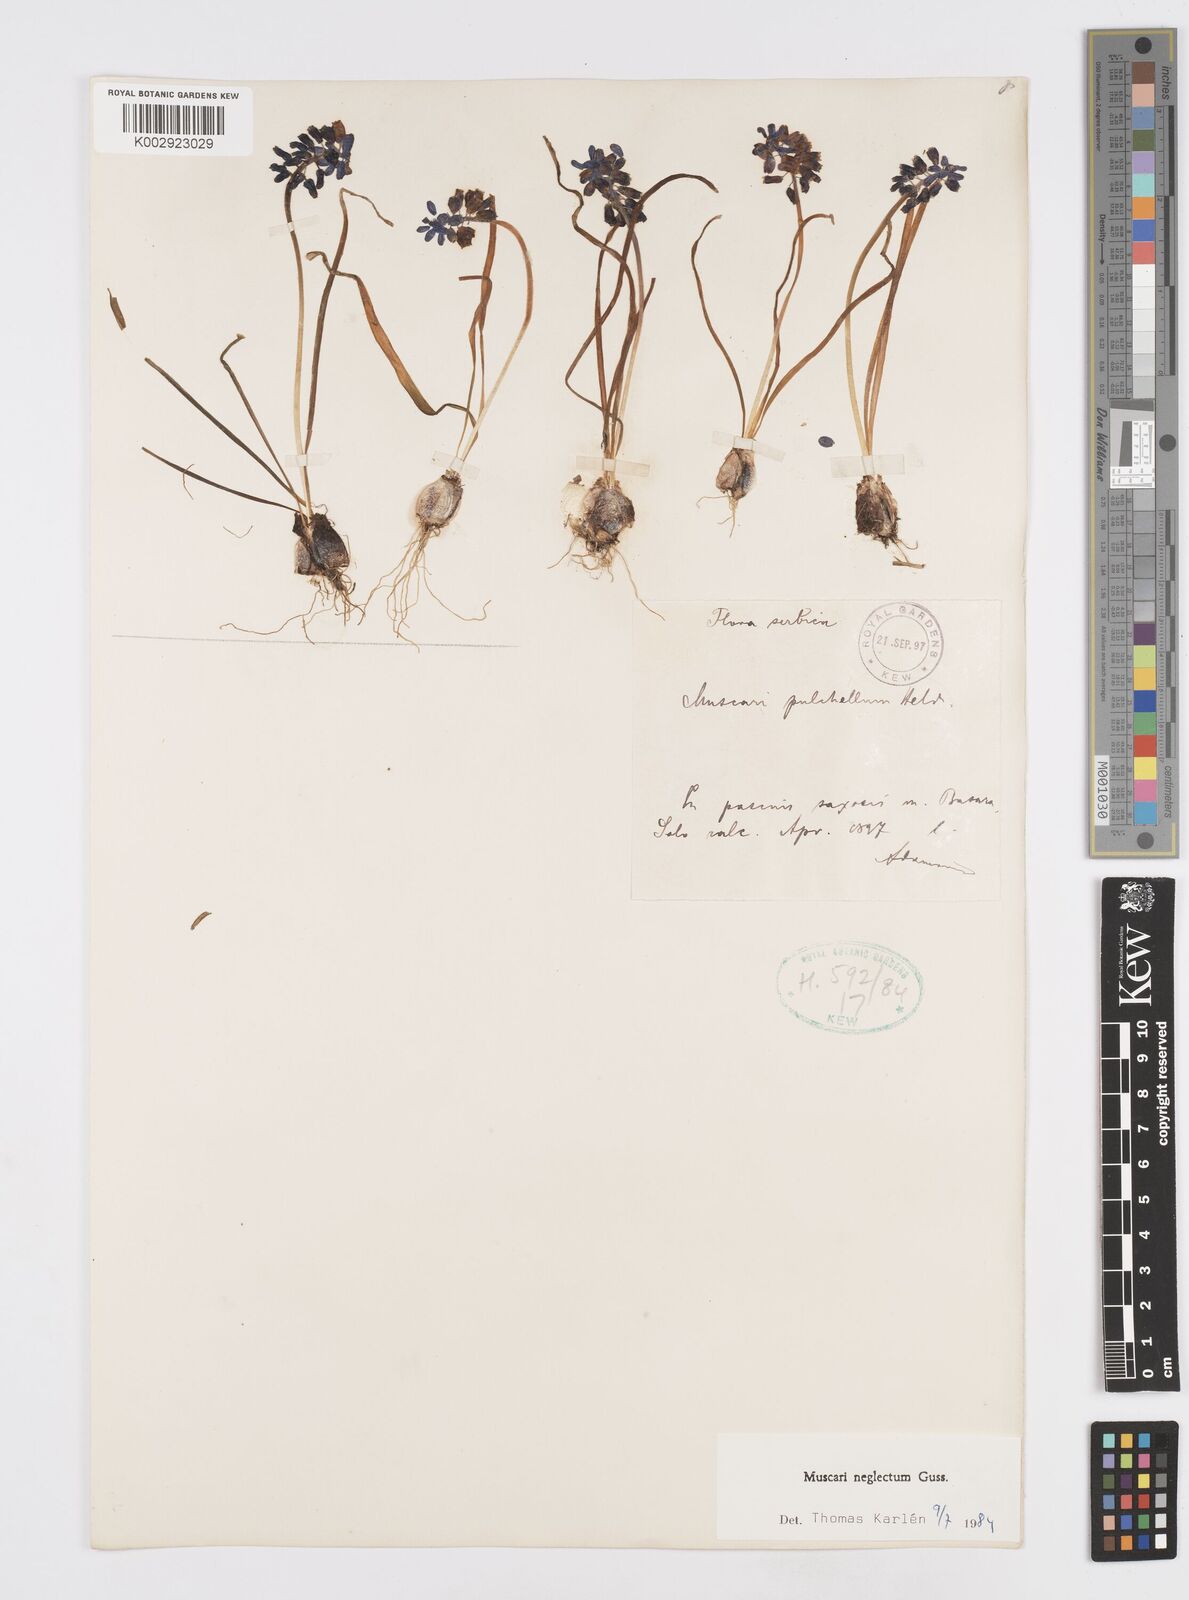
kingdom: Plantae
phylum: Tracheophyta
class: Liliopsida
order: Asparagales
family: Asparagaceae
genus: Muscari
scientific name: Muscari neglectum
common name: Grape-hyacinth
